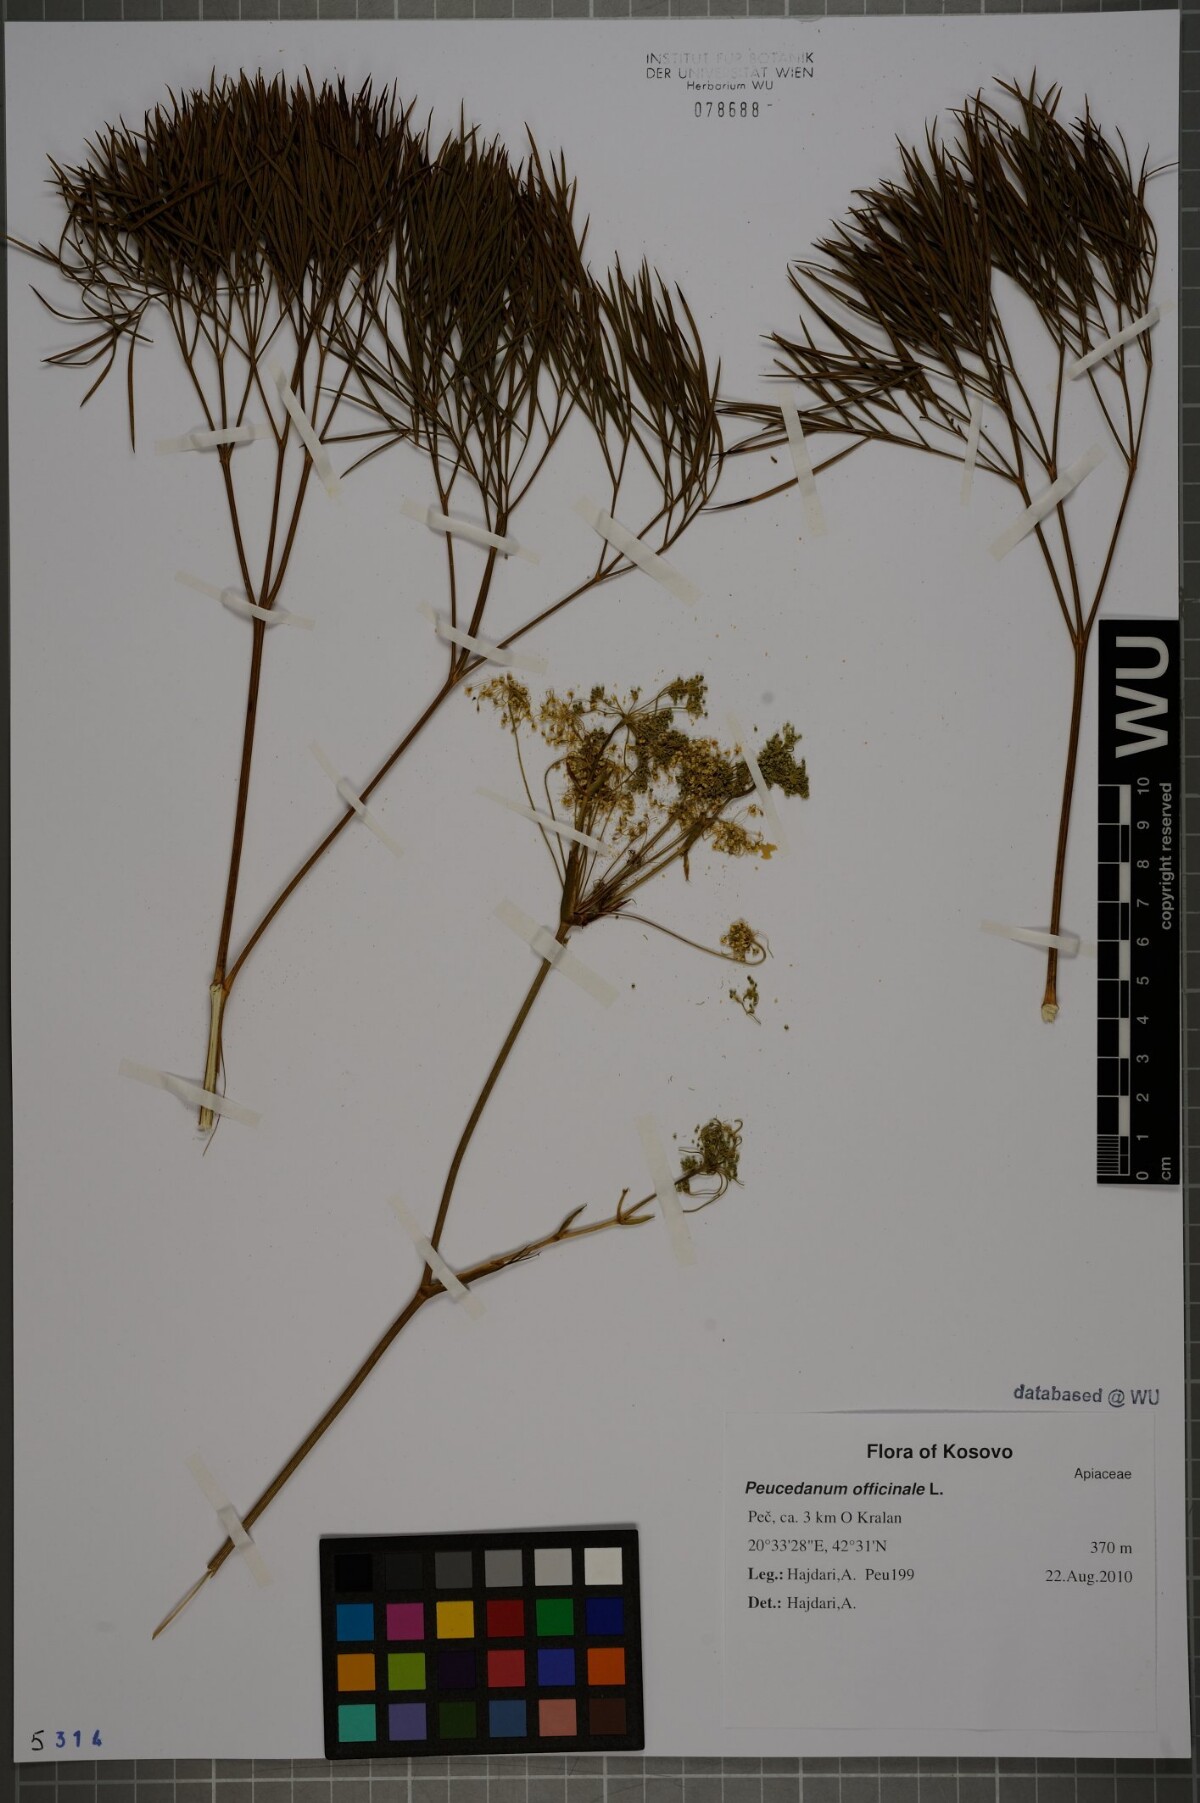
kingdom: Plantae
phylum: Tracheophyta
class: Magnoliopsida
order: Apiales
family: Apiaceae
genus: Peucedanum
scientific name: Peucedanum officinale
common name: Sulphurweed
